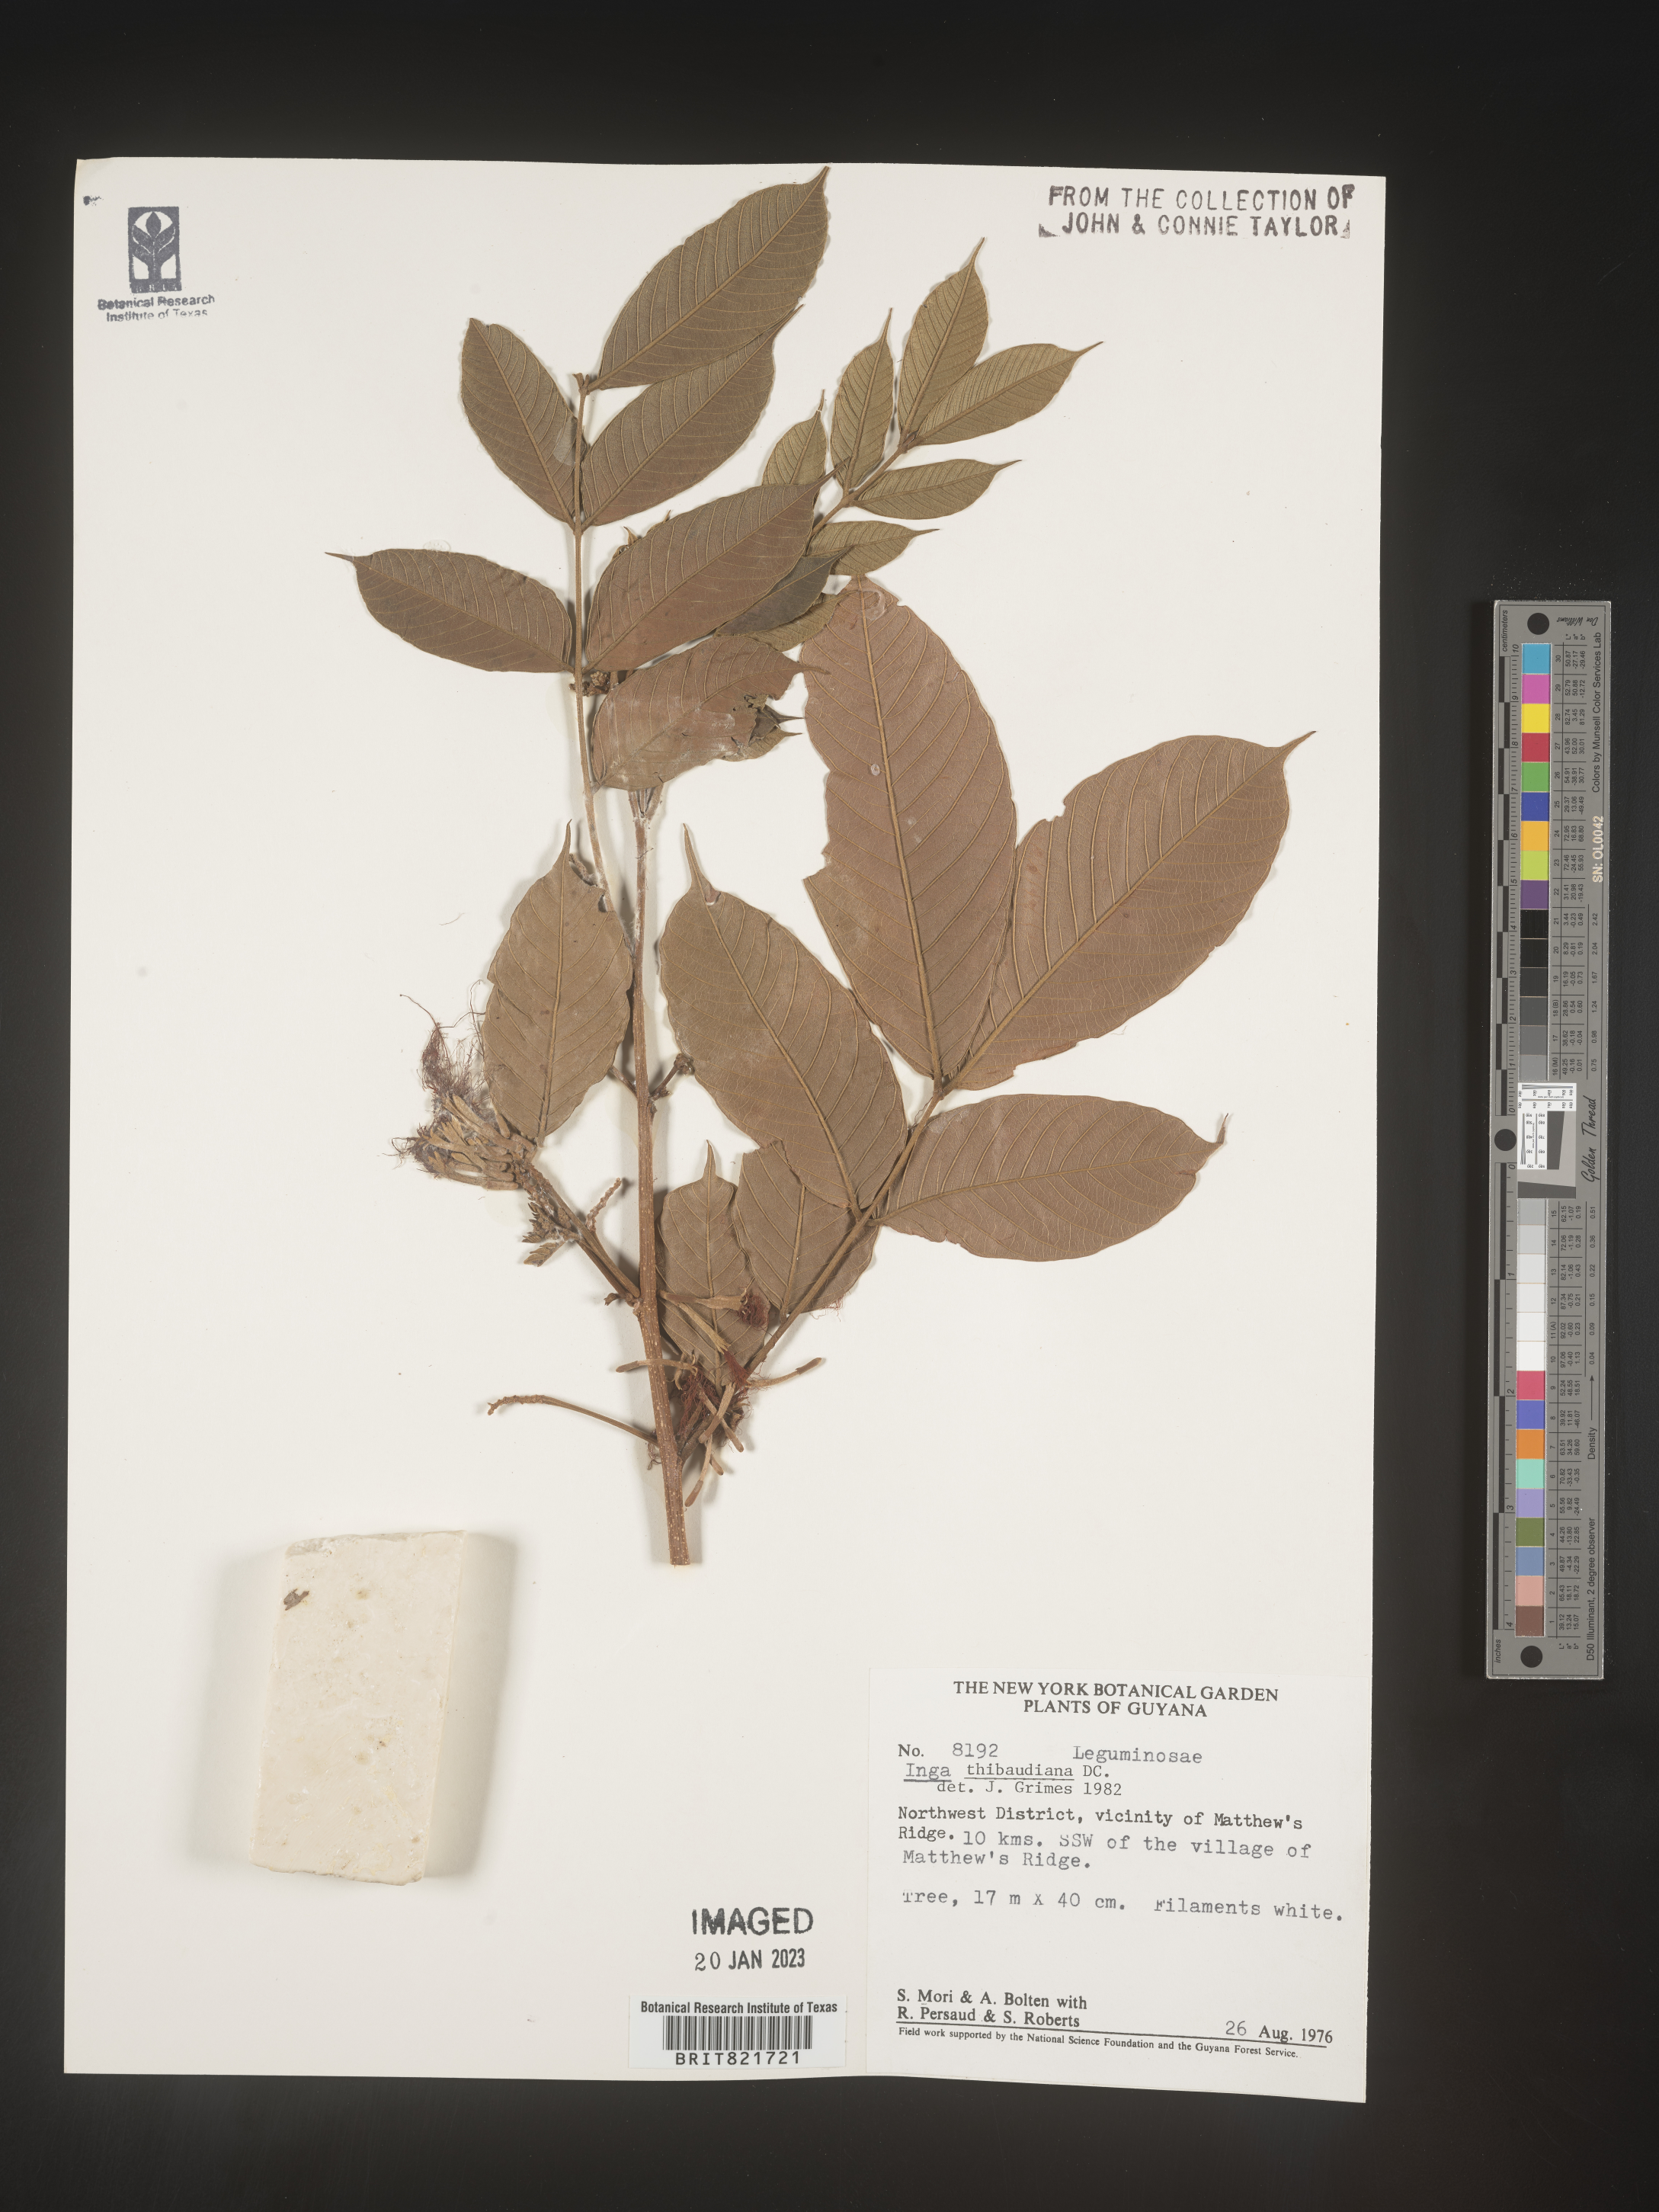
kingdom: Plantae
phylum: Tracheophyta
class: Magnoliopsida
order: Fabales
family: Fabaceae
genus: Inga
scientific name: Inga
